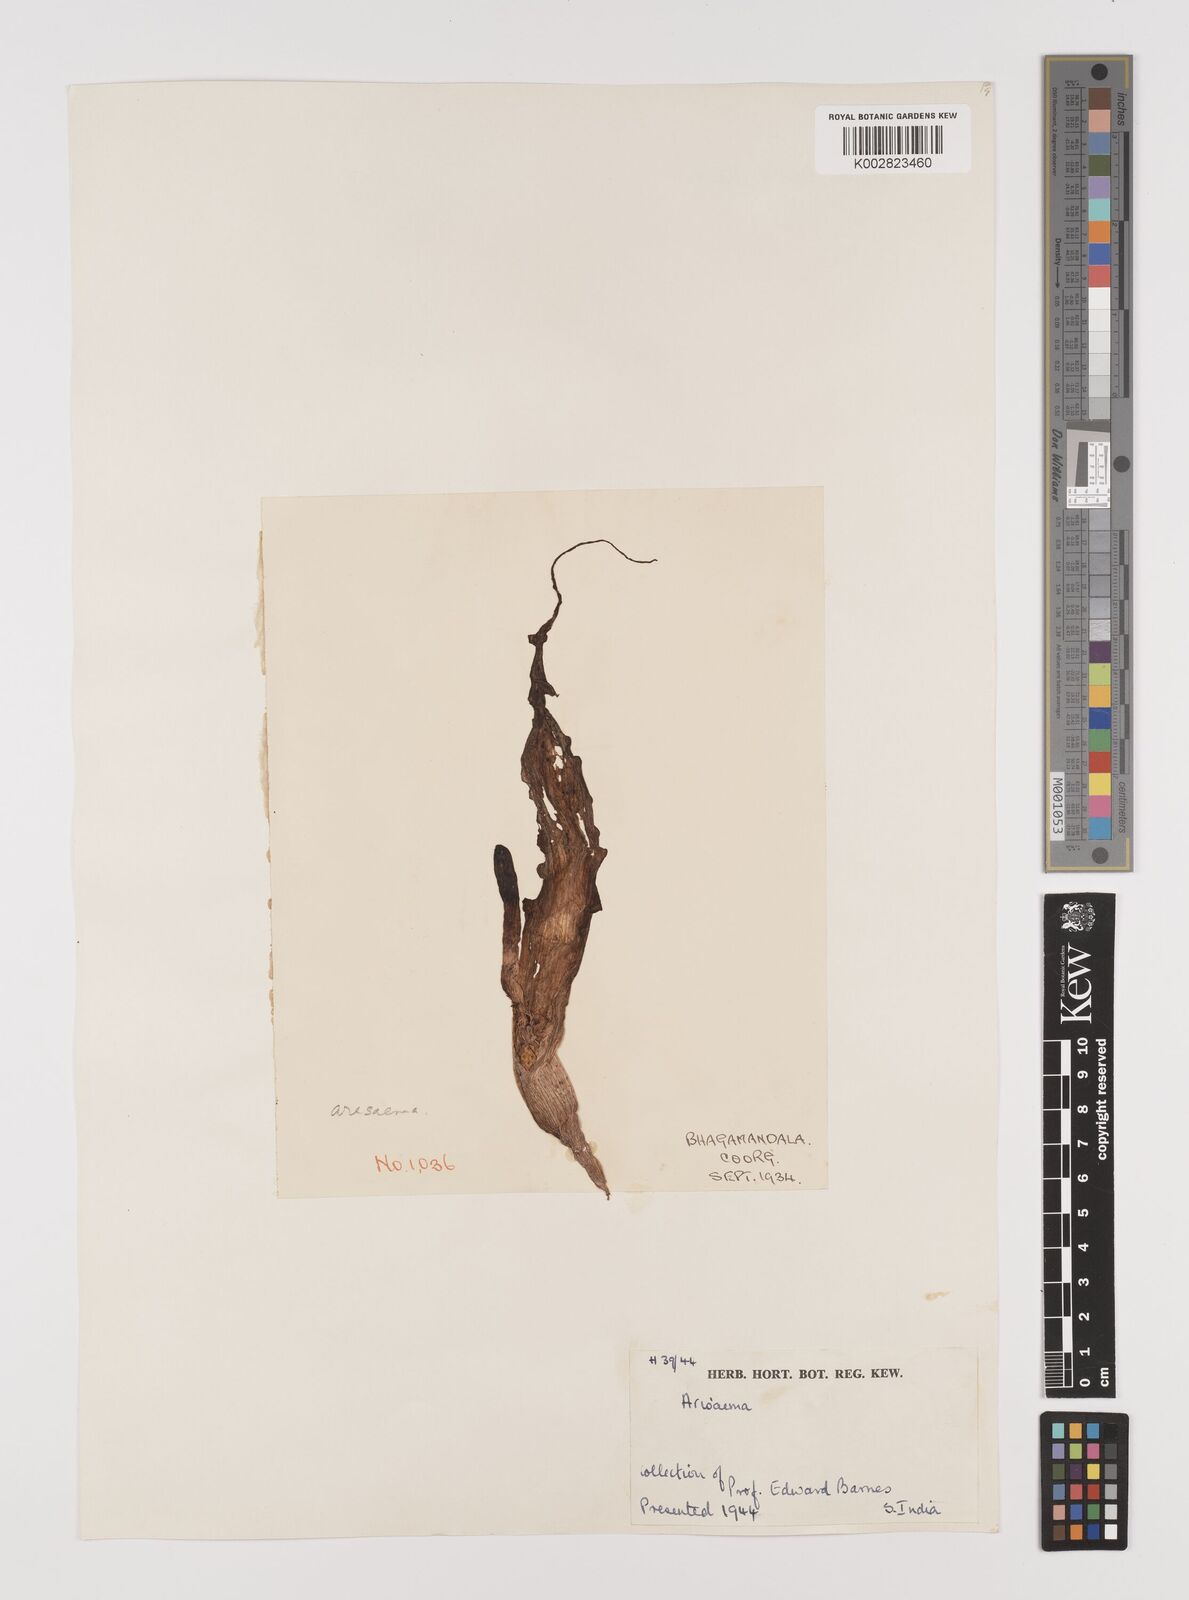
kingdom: Plantae
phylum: Tracheophyta
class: Liliopsida
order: Alismatales
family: Araceae
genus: Arisaema
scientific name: Arisaema
